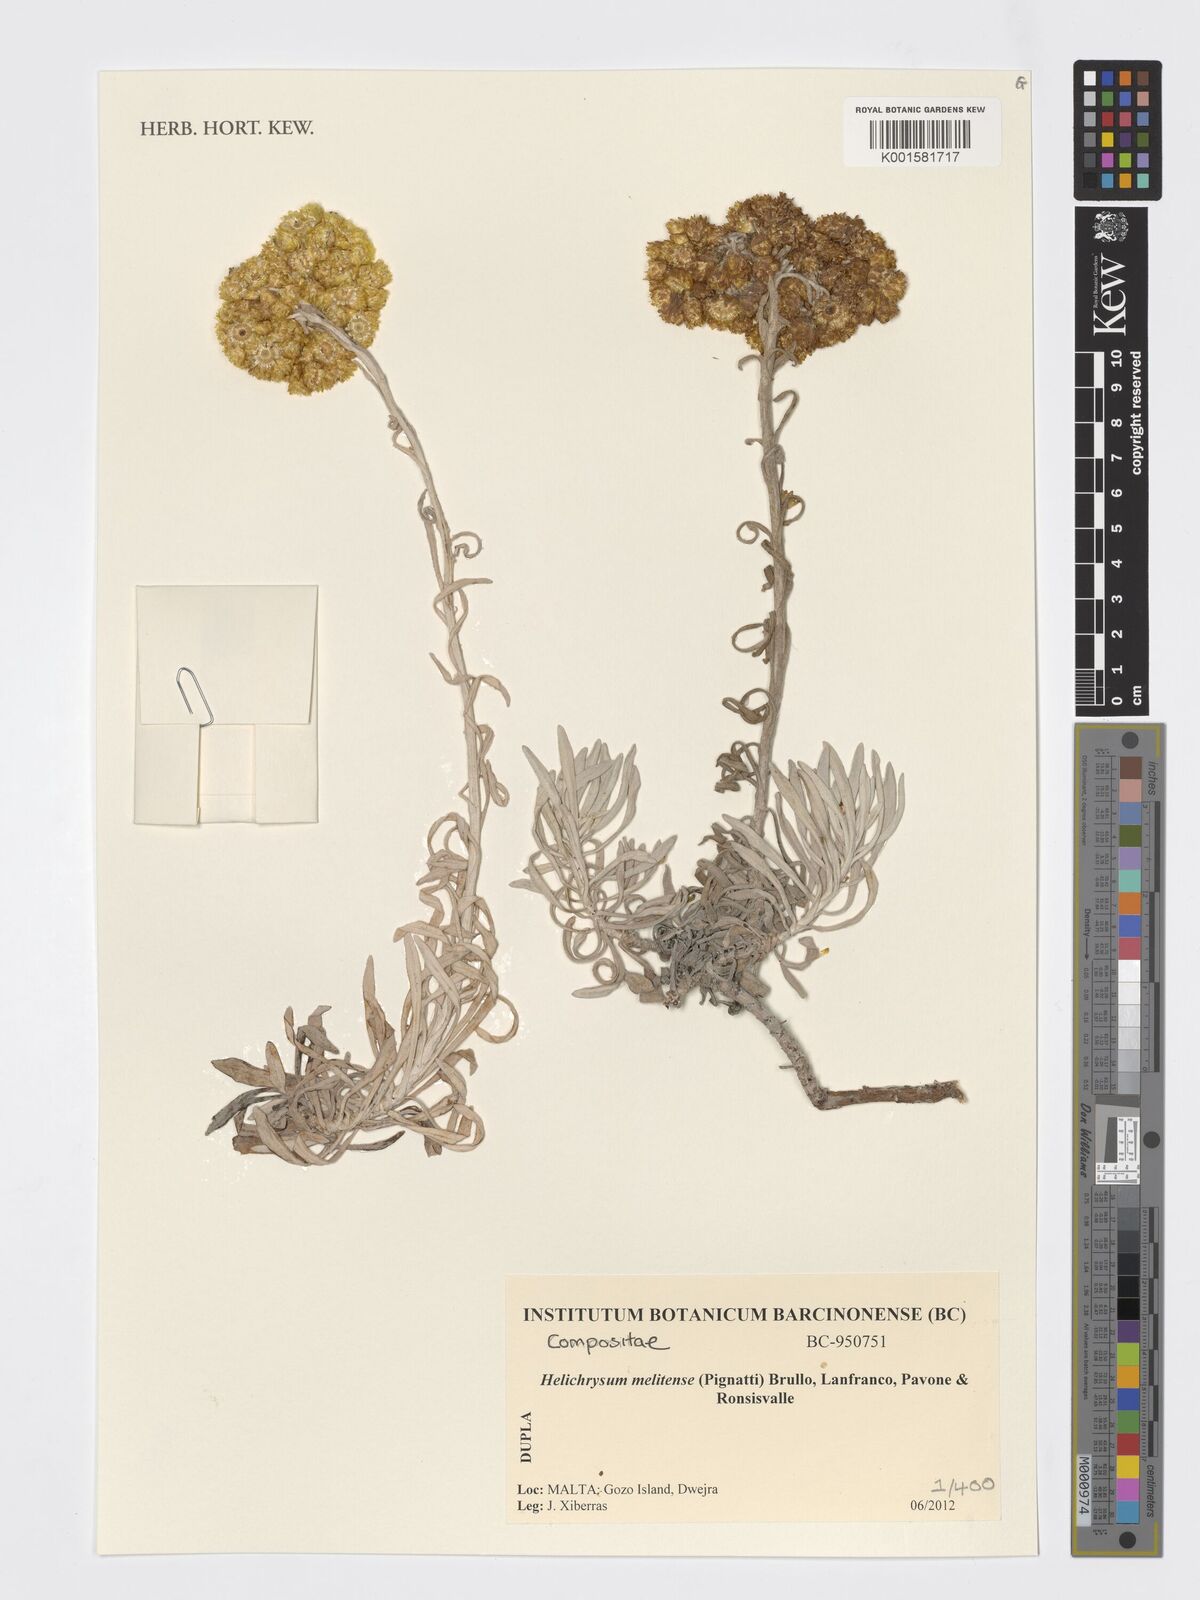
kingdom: Plantae
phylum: Tracheophyta
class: Magnoliopsida
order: Asterales
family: Asteraceae
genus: Helichrysum
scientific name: Helichrysum melitense
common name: Maltese everlasting
